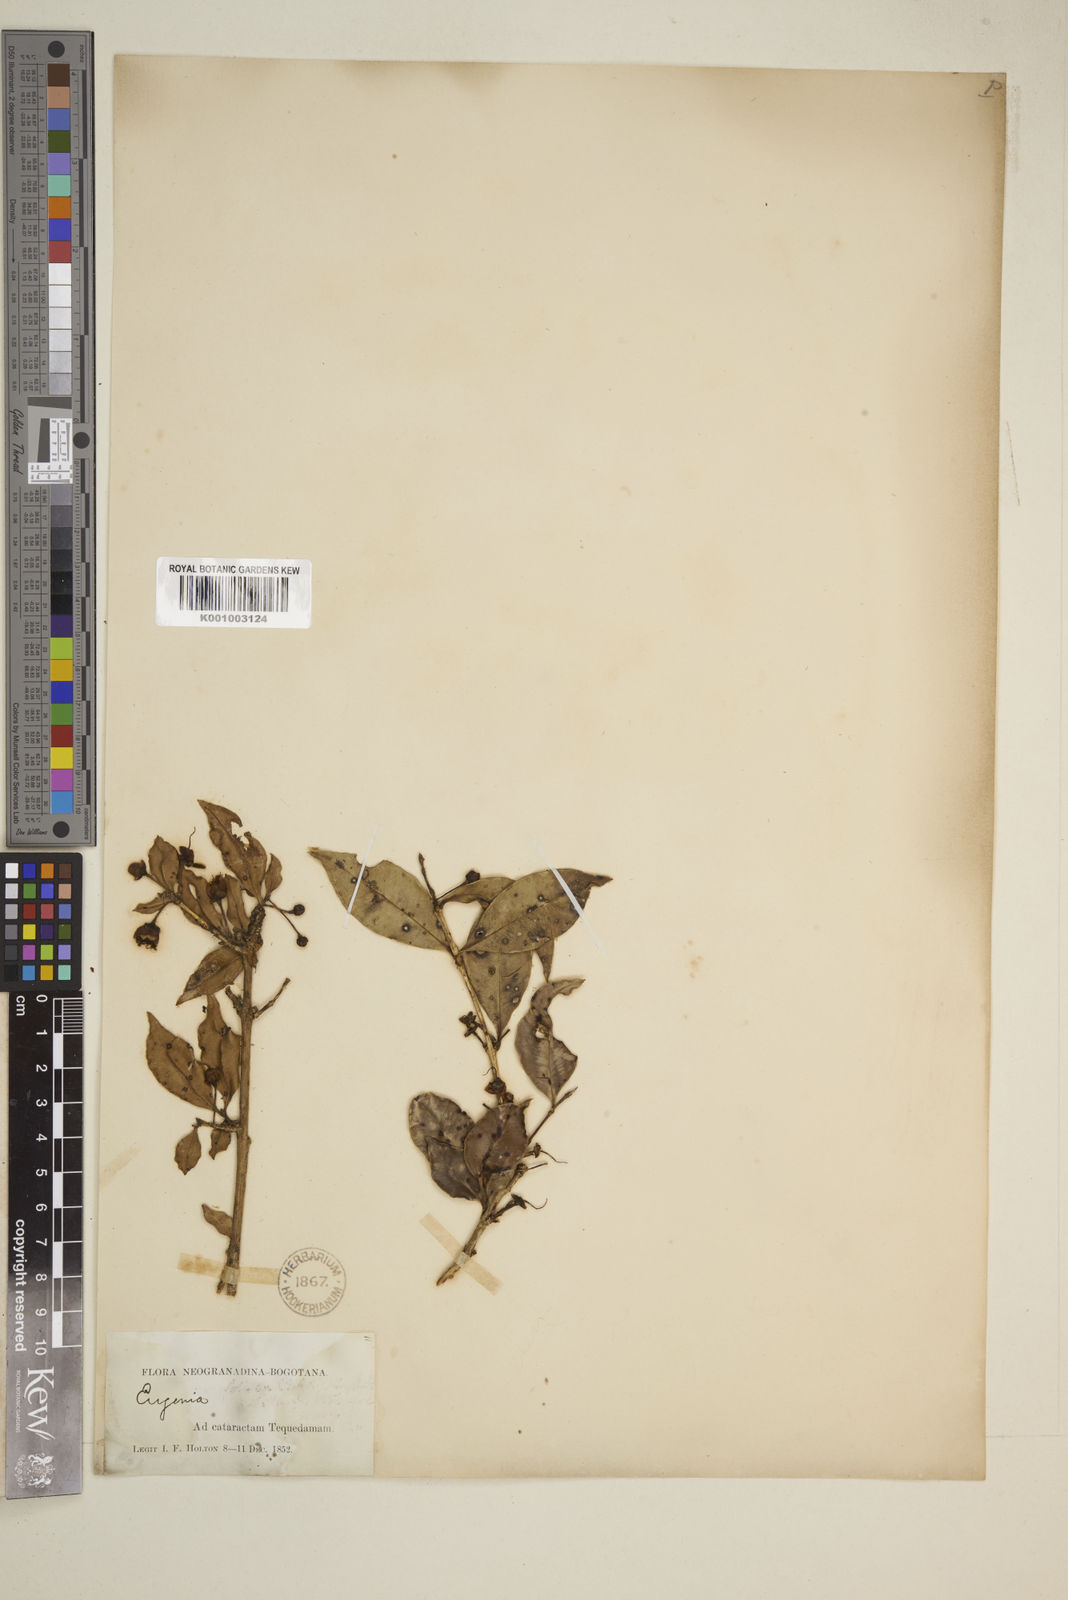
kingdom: Plantae
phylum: Tracheophyta
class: Magnoliopsida
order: Myrtales
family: Myrtaceae
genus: Eugenia
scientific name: Eugenia
